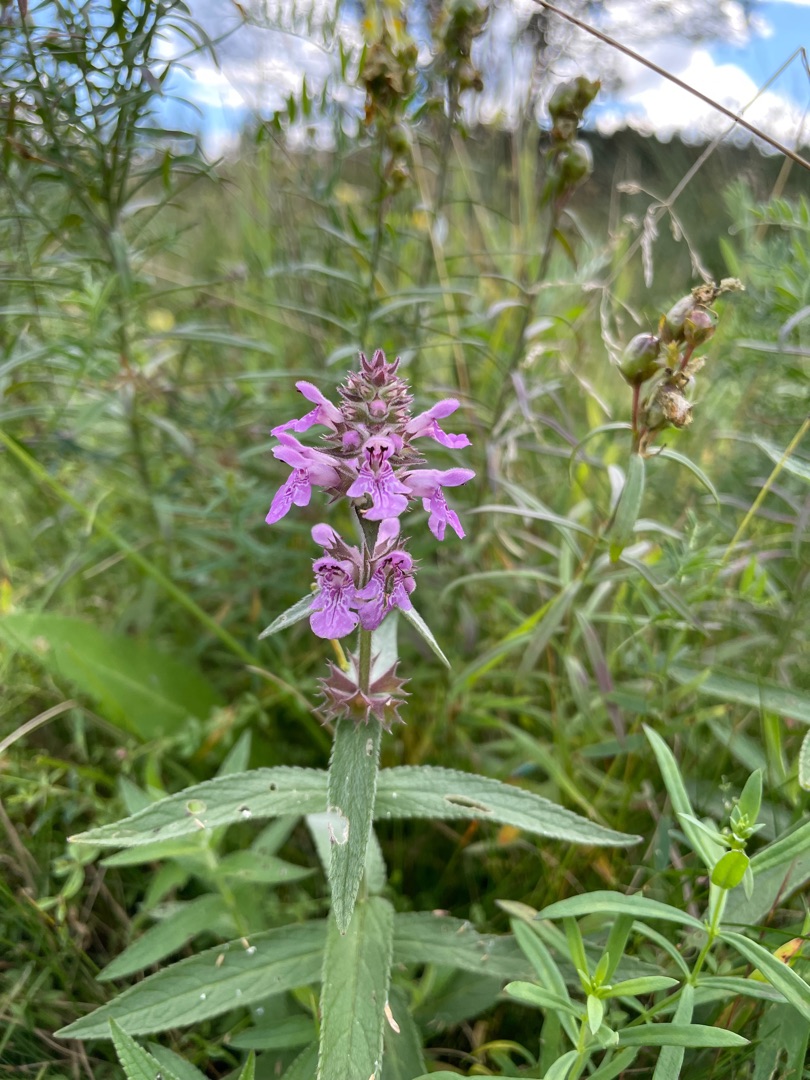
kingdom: Plantae
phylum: Tracheophyta
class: Magnoliopsida
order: Lamiales
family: Lamiaceae
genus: Stachys
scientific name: Stachys palustris
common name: Kær-galtetand
